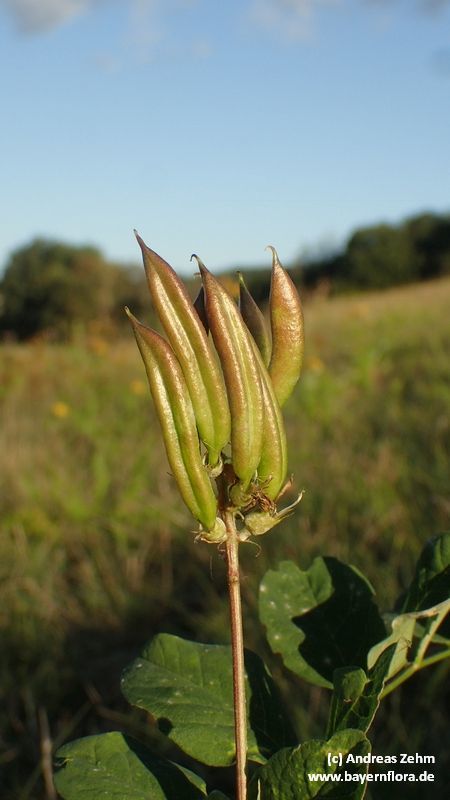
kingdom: Plantae
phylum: Tracheophyta
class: Magnoliopsida
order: Fabales
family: Fabaceae
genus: Astragalus
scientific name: Astragalus glycyphyllos
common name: Wild liquorice
